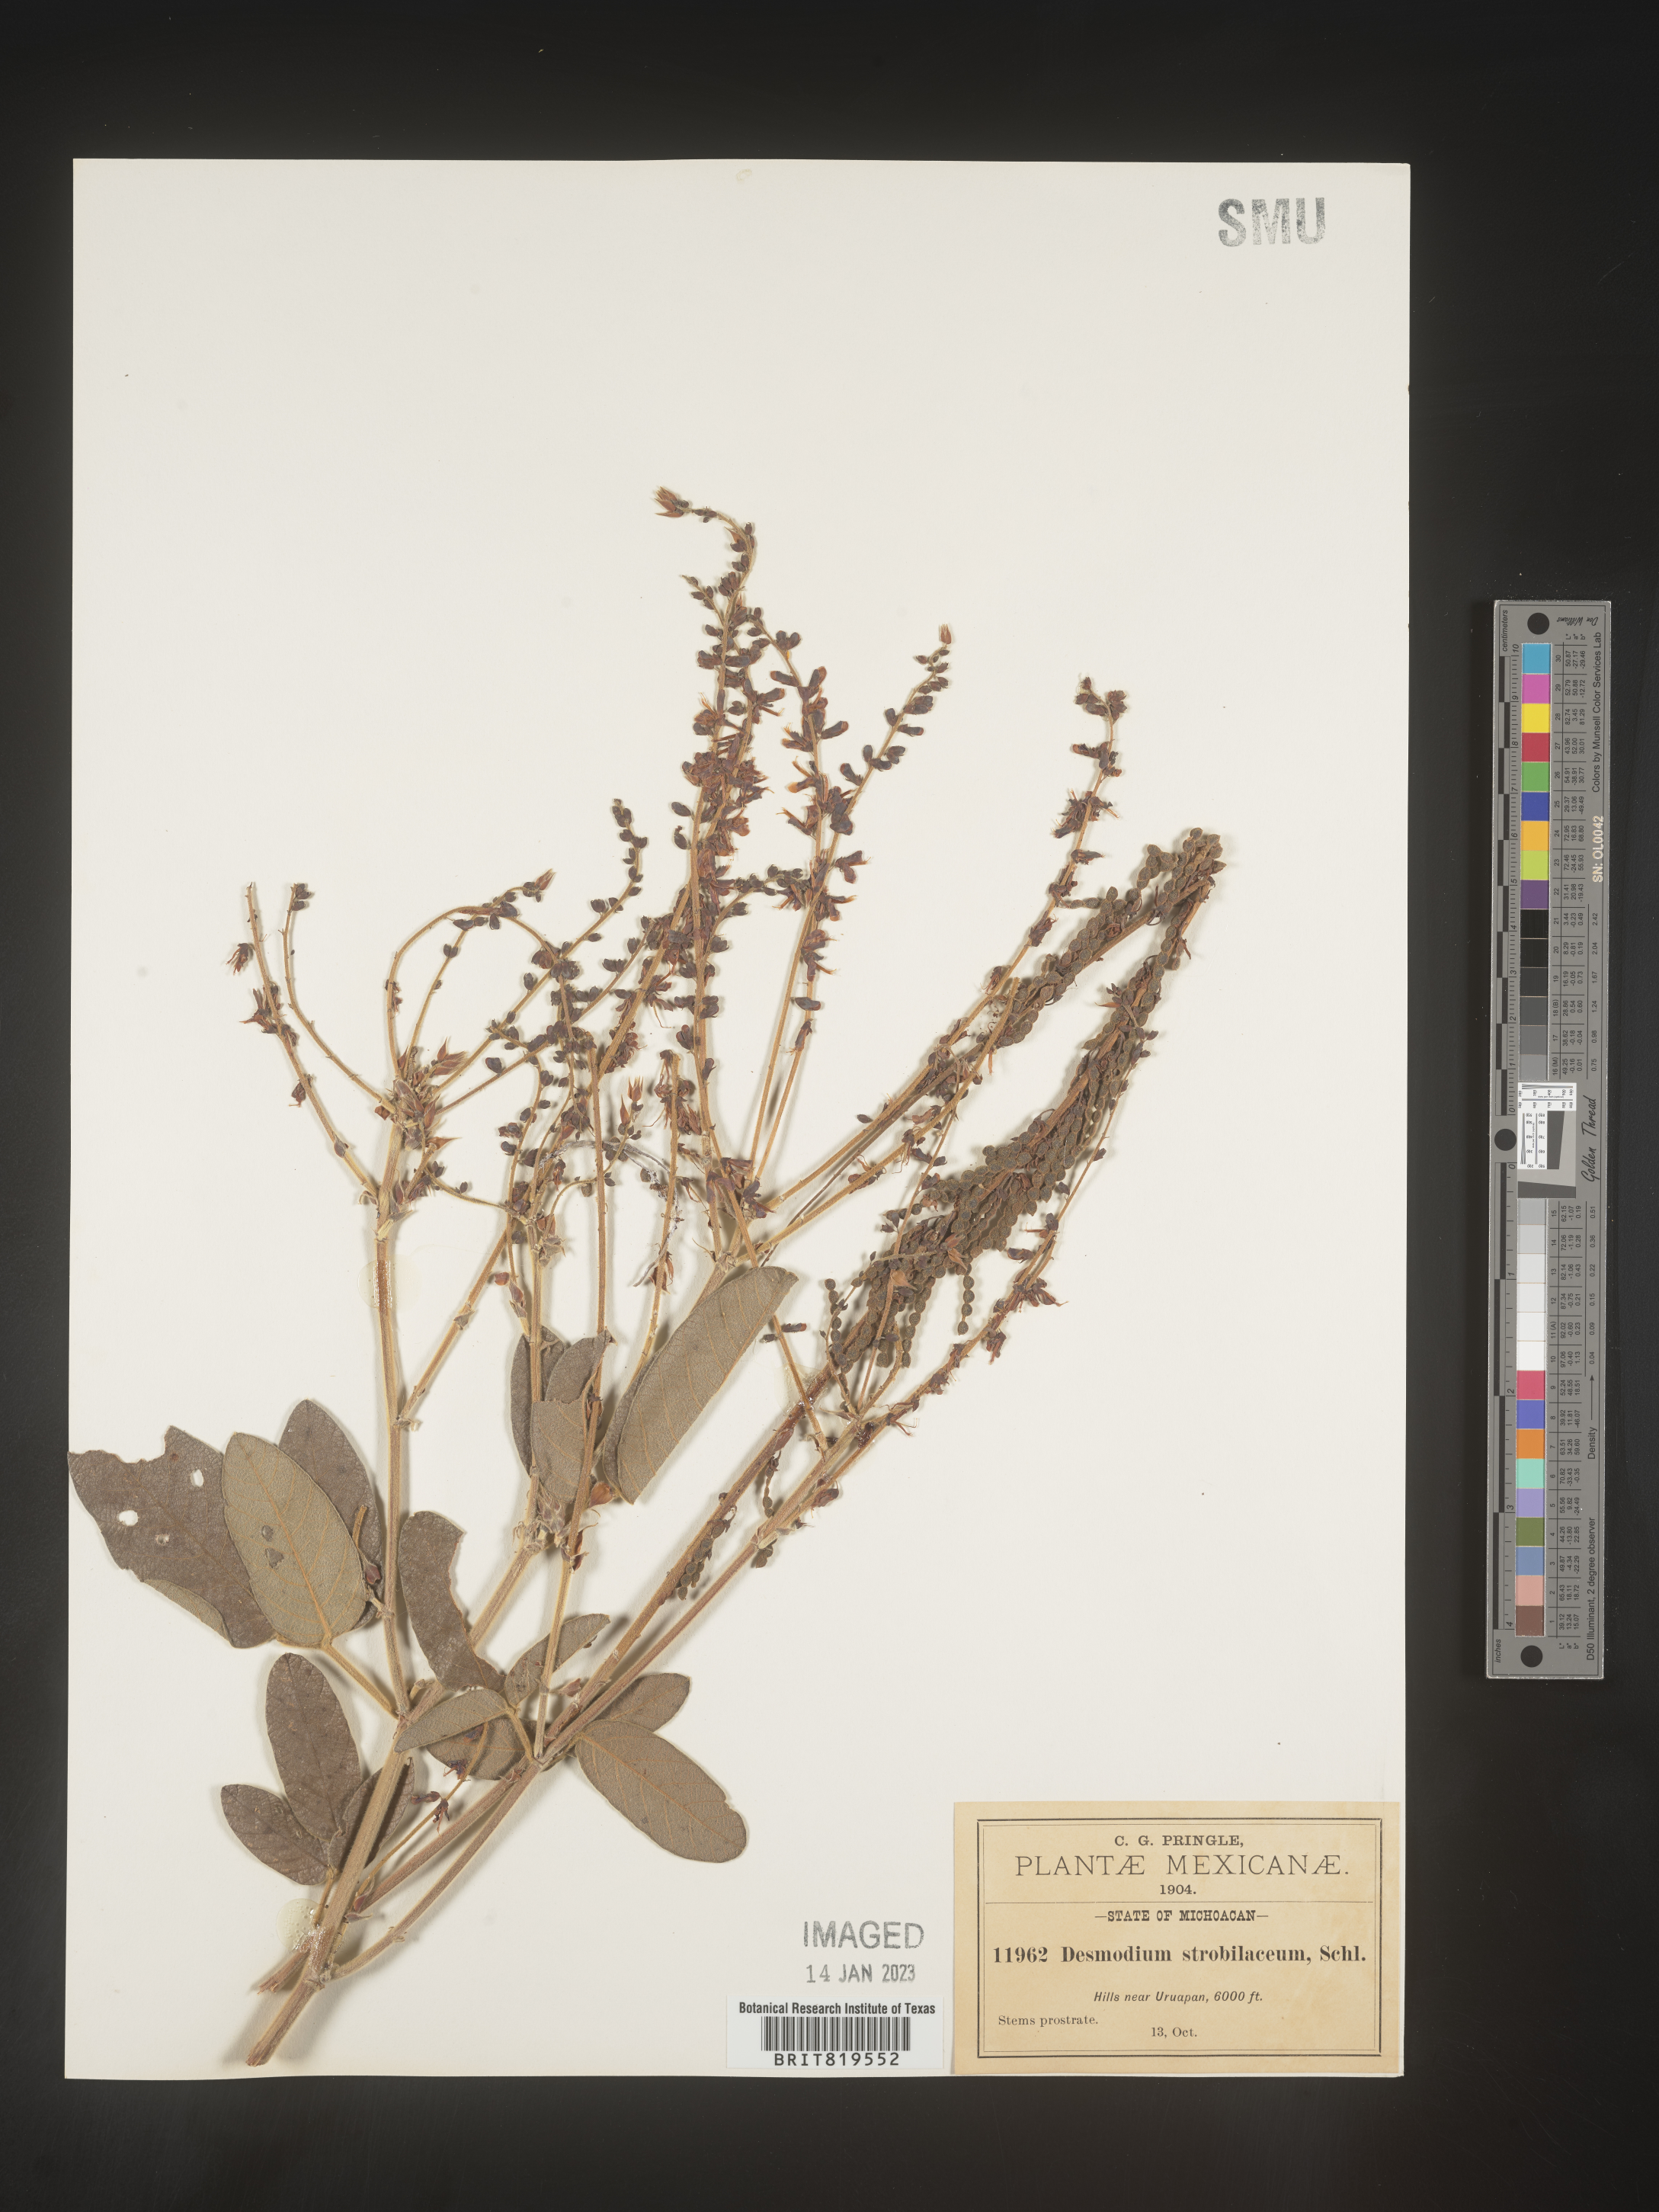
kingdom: Plantae
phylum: Tracheophyta
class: Magnoliopsida
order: Fabales
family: Fabaceae
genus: Desmodium
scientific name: Desmodium
